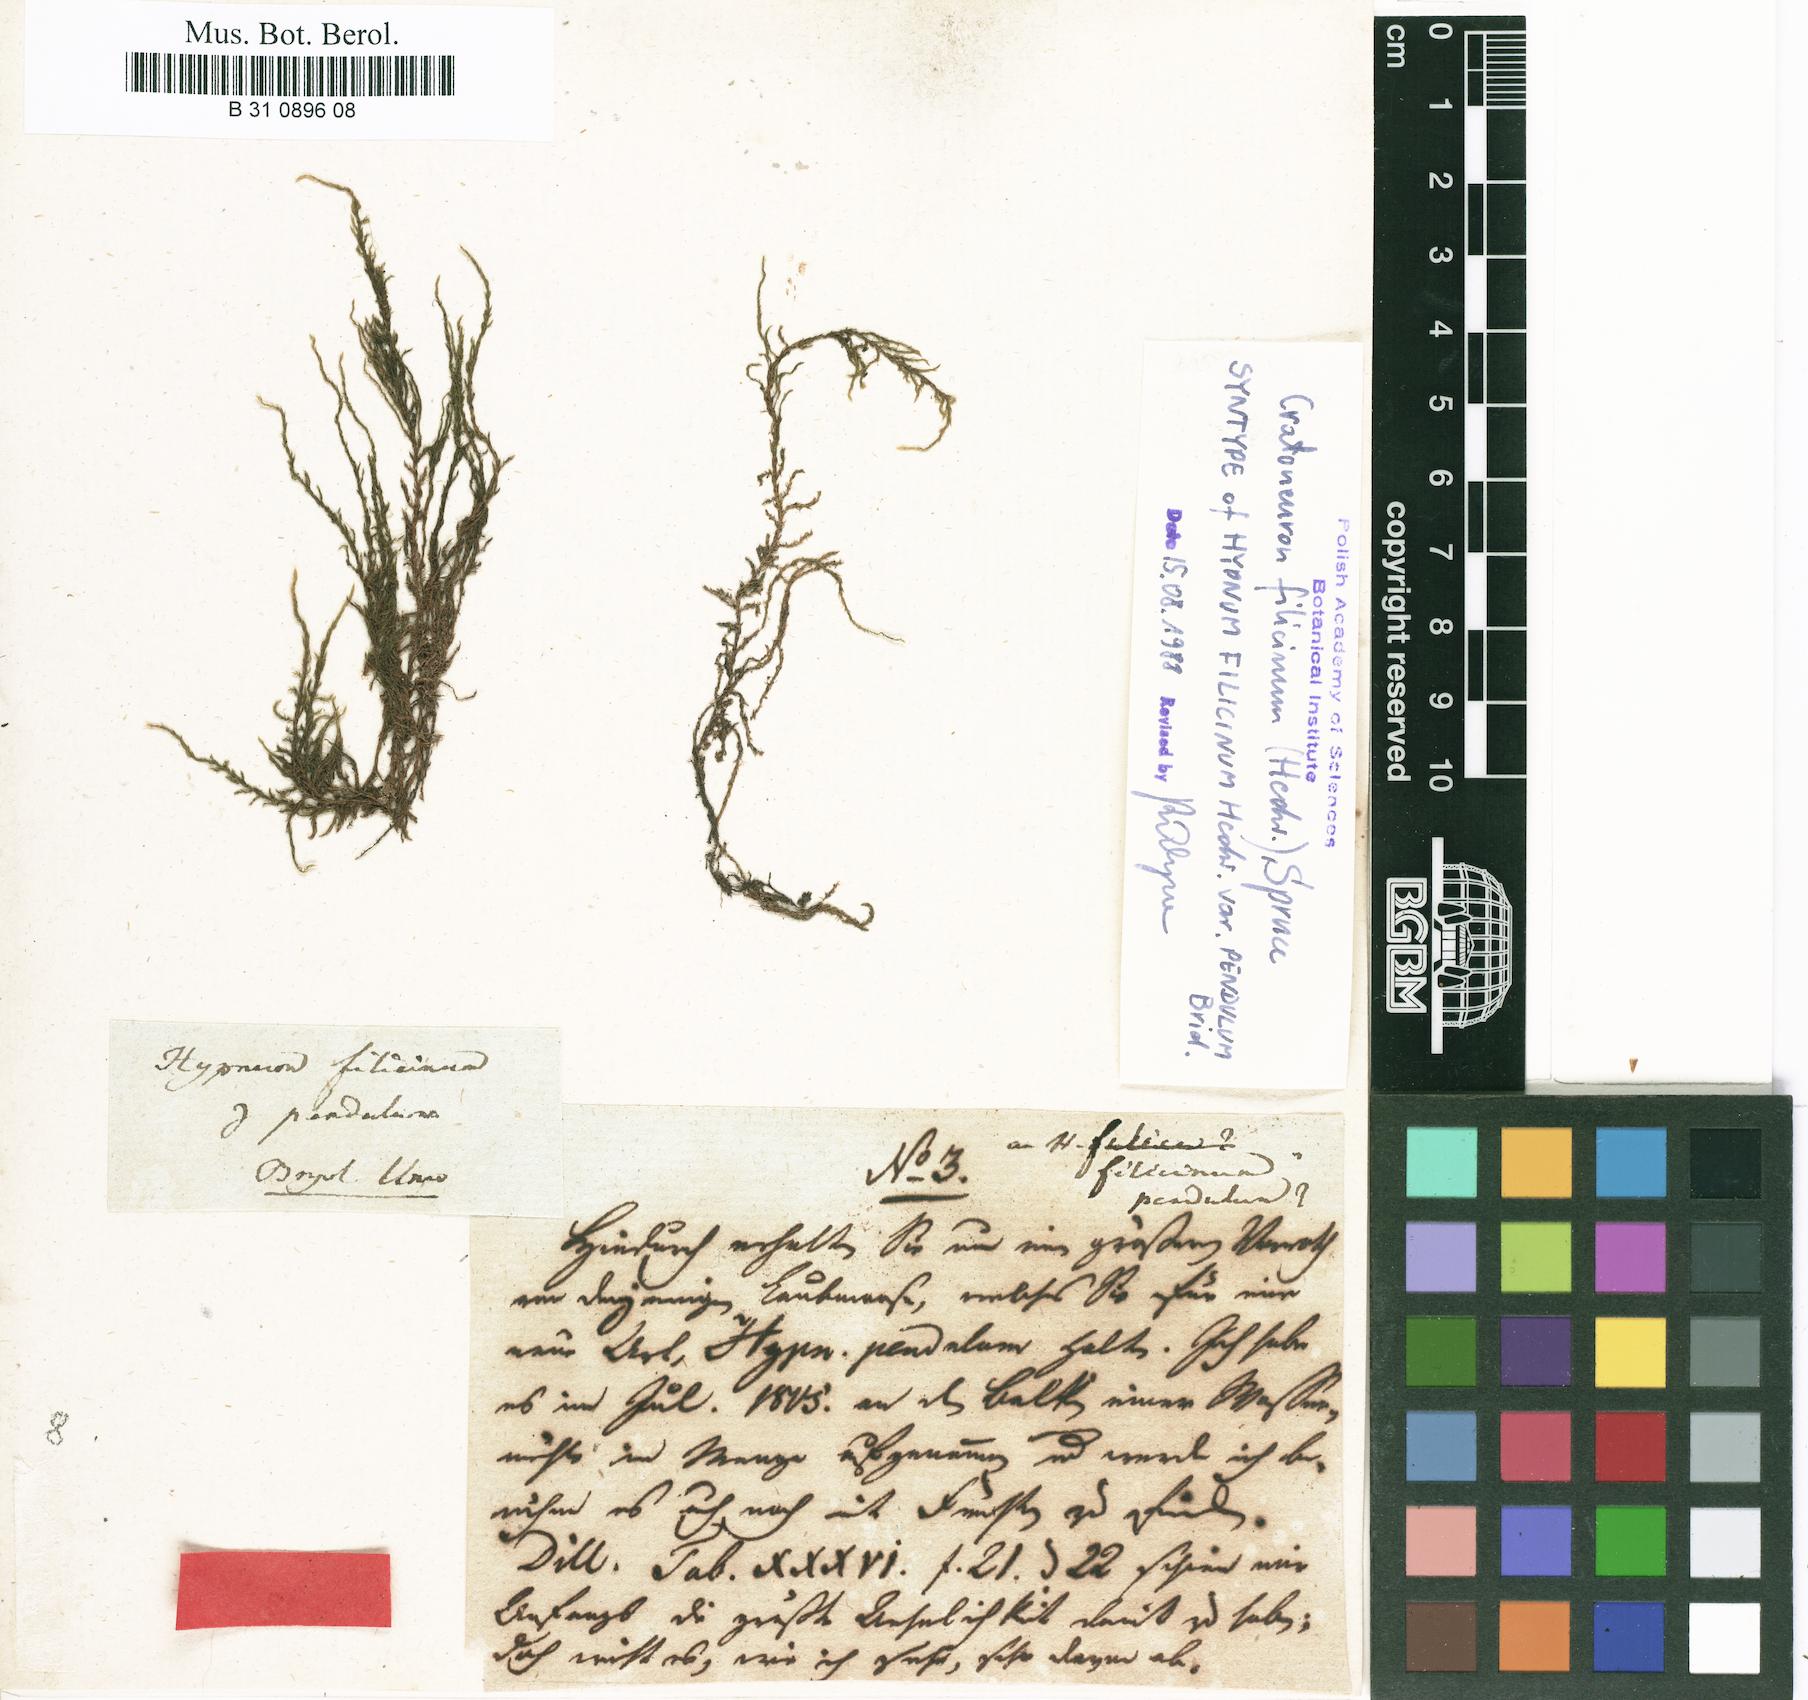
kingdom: Plantae
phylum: Bryophyta
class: Bryopsida
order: Hypnales
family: Amblystegiaceae
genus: Cratoneuron
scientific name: Cratoneuron filicinum
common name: Fern-leaved hook moss
